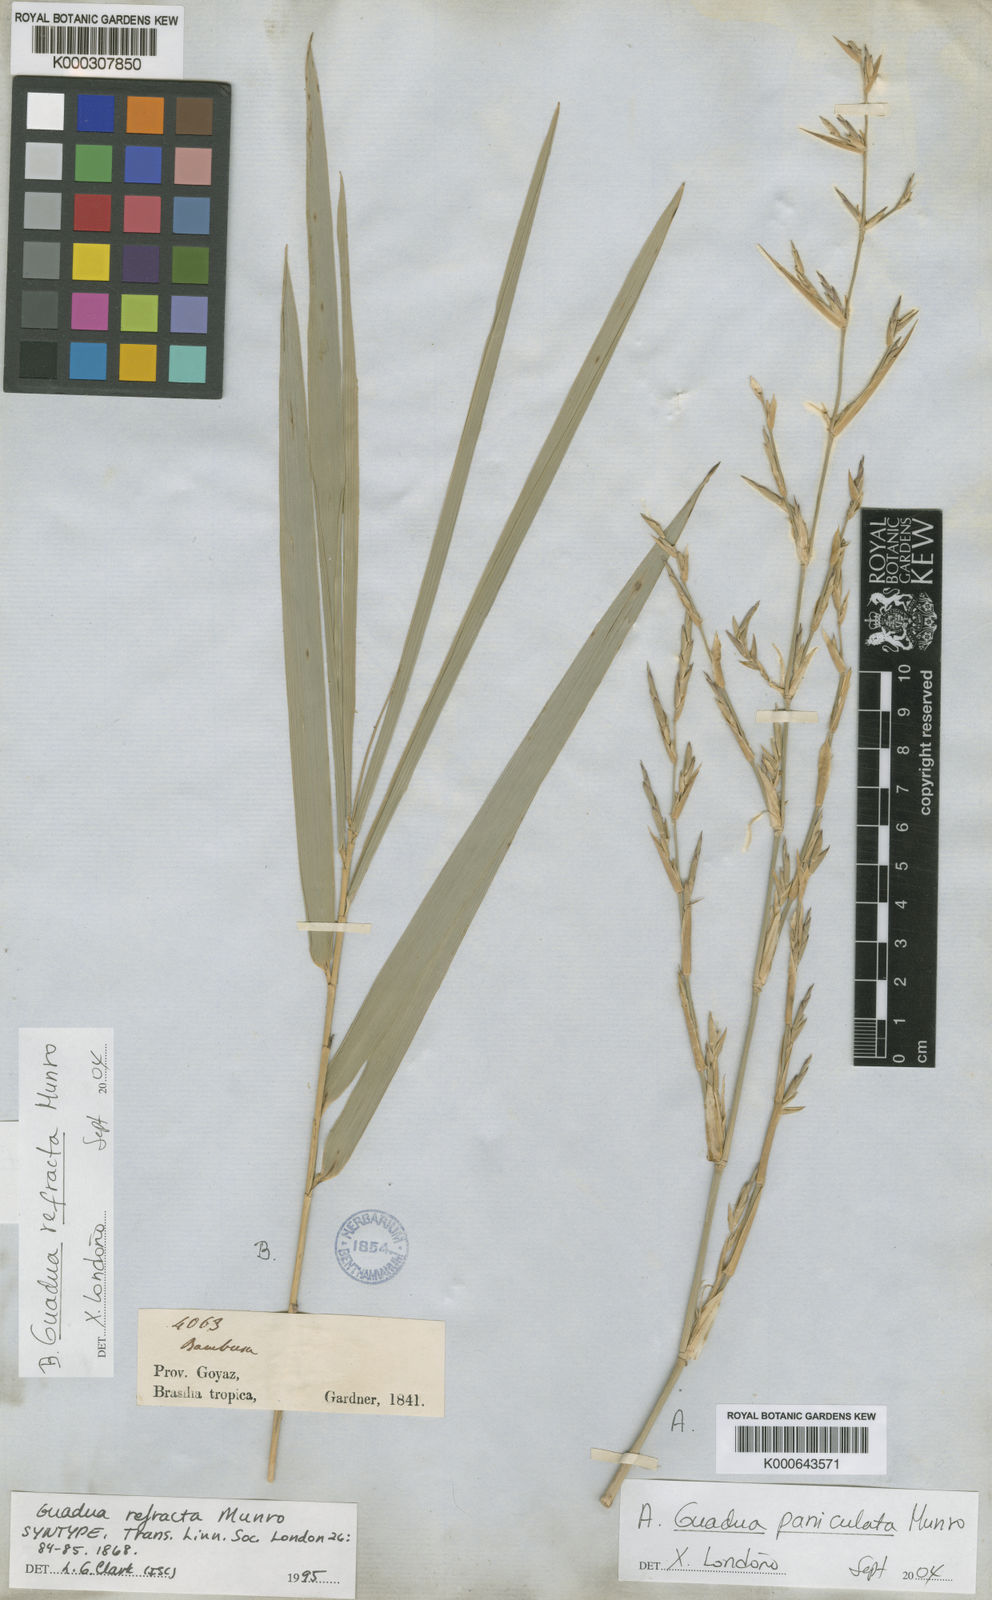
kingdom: Plantae
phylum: Tracheophyta
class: Liliopsida
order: Poales
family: Poaceae
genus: Guadua
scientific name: Guadua refracta
